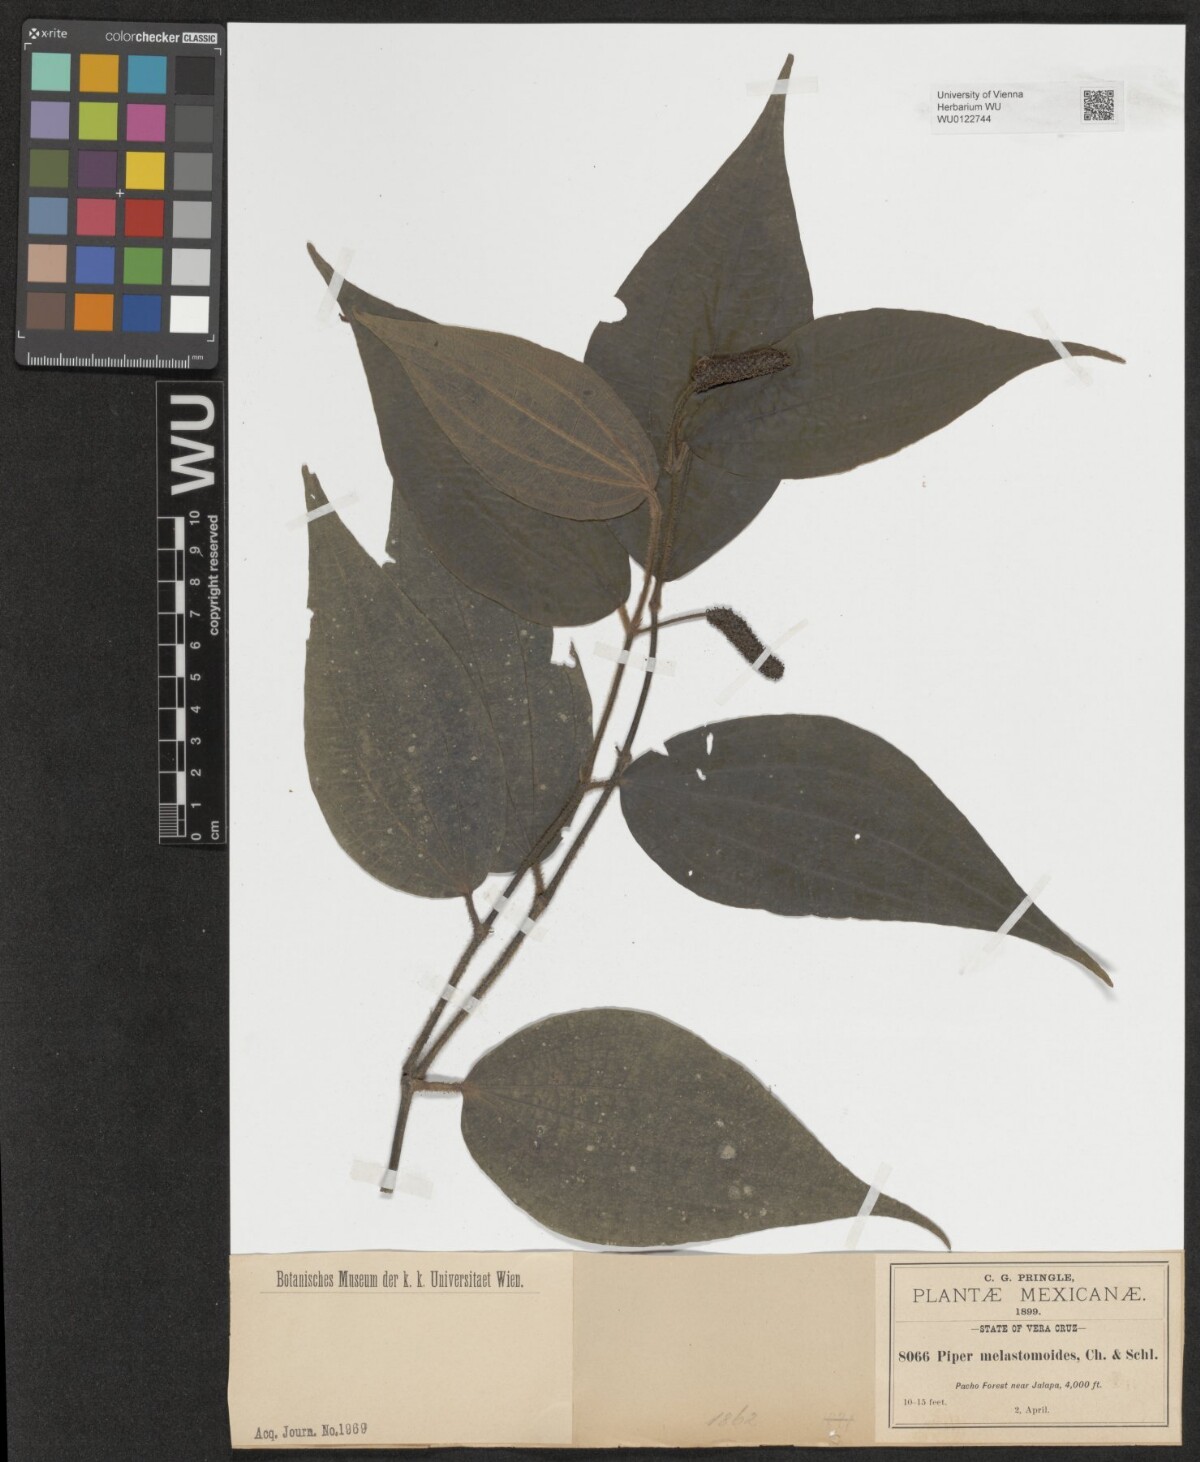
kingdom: Plantae
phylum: Tracheophyta
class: Magnoliopsida
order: Piperales
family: Piperaceae
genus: Piper
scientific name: Piper melastomoides
